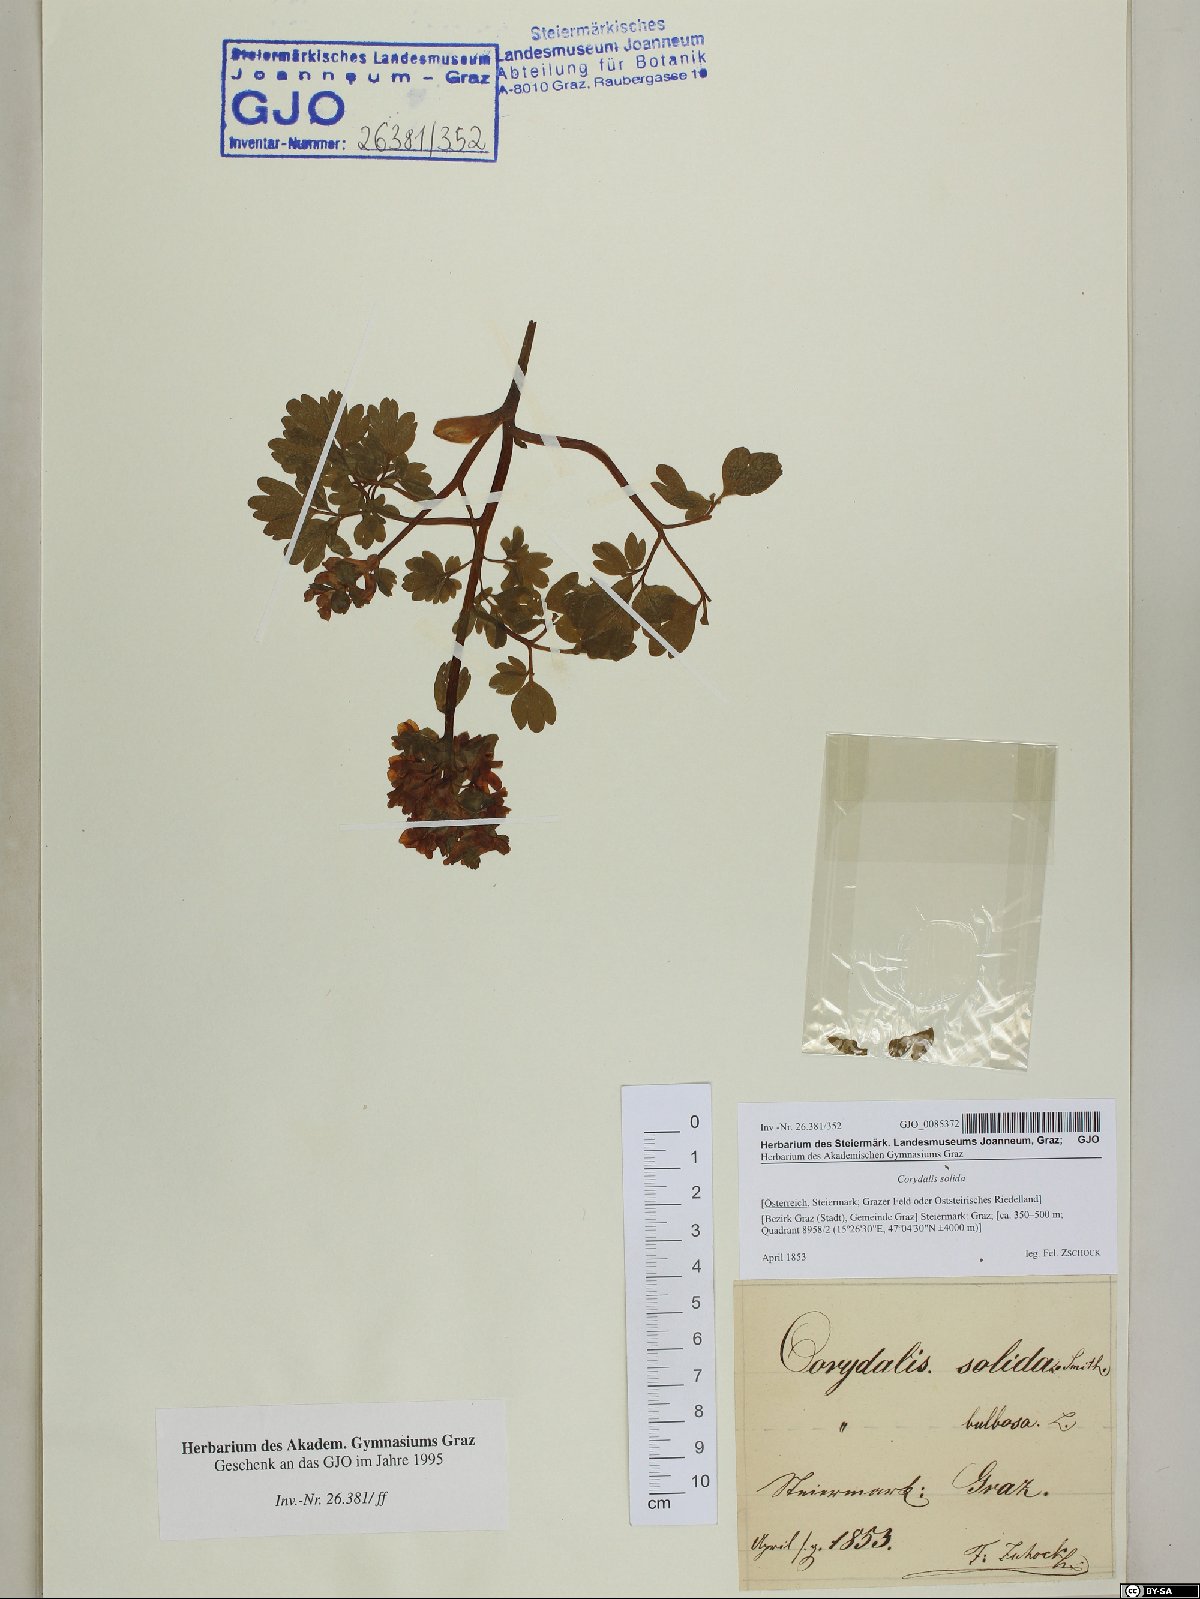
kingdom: Plantae
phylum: Tracheophyta
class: Magnoliopsida
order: Ranunculales
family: Papaveraceae
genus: Corydalis
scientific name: Corydalis solida
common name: Bird-in-a-bush
